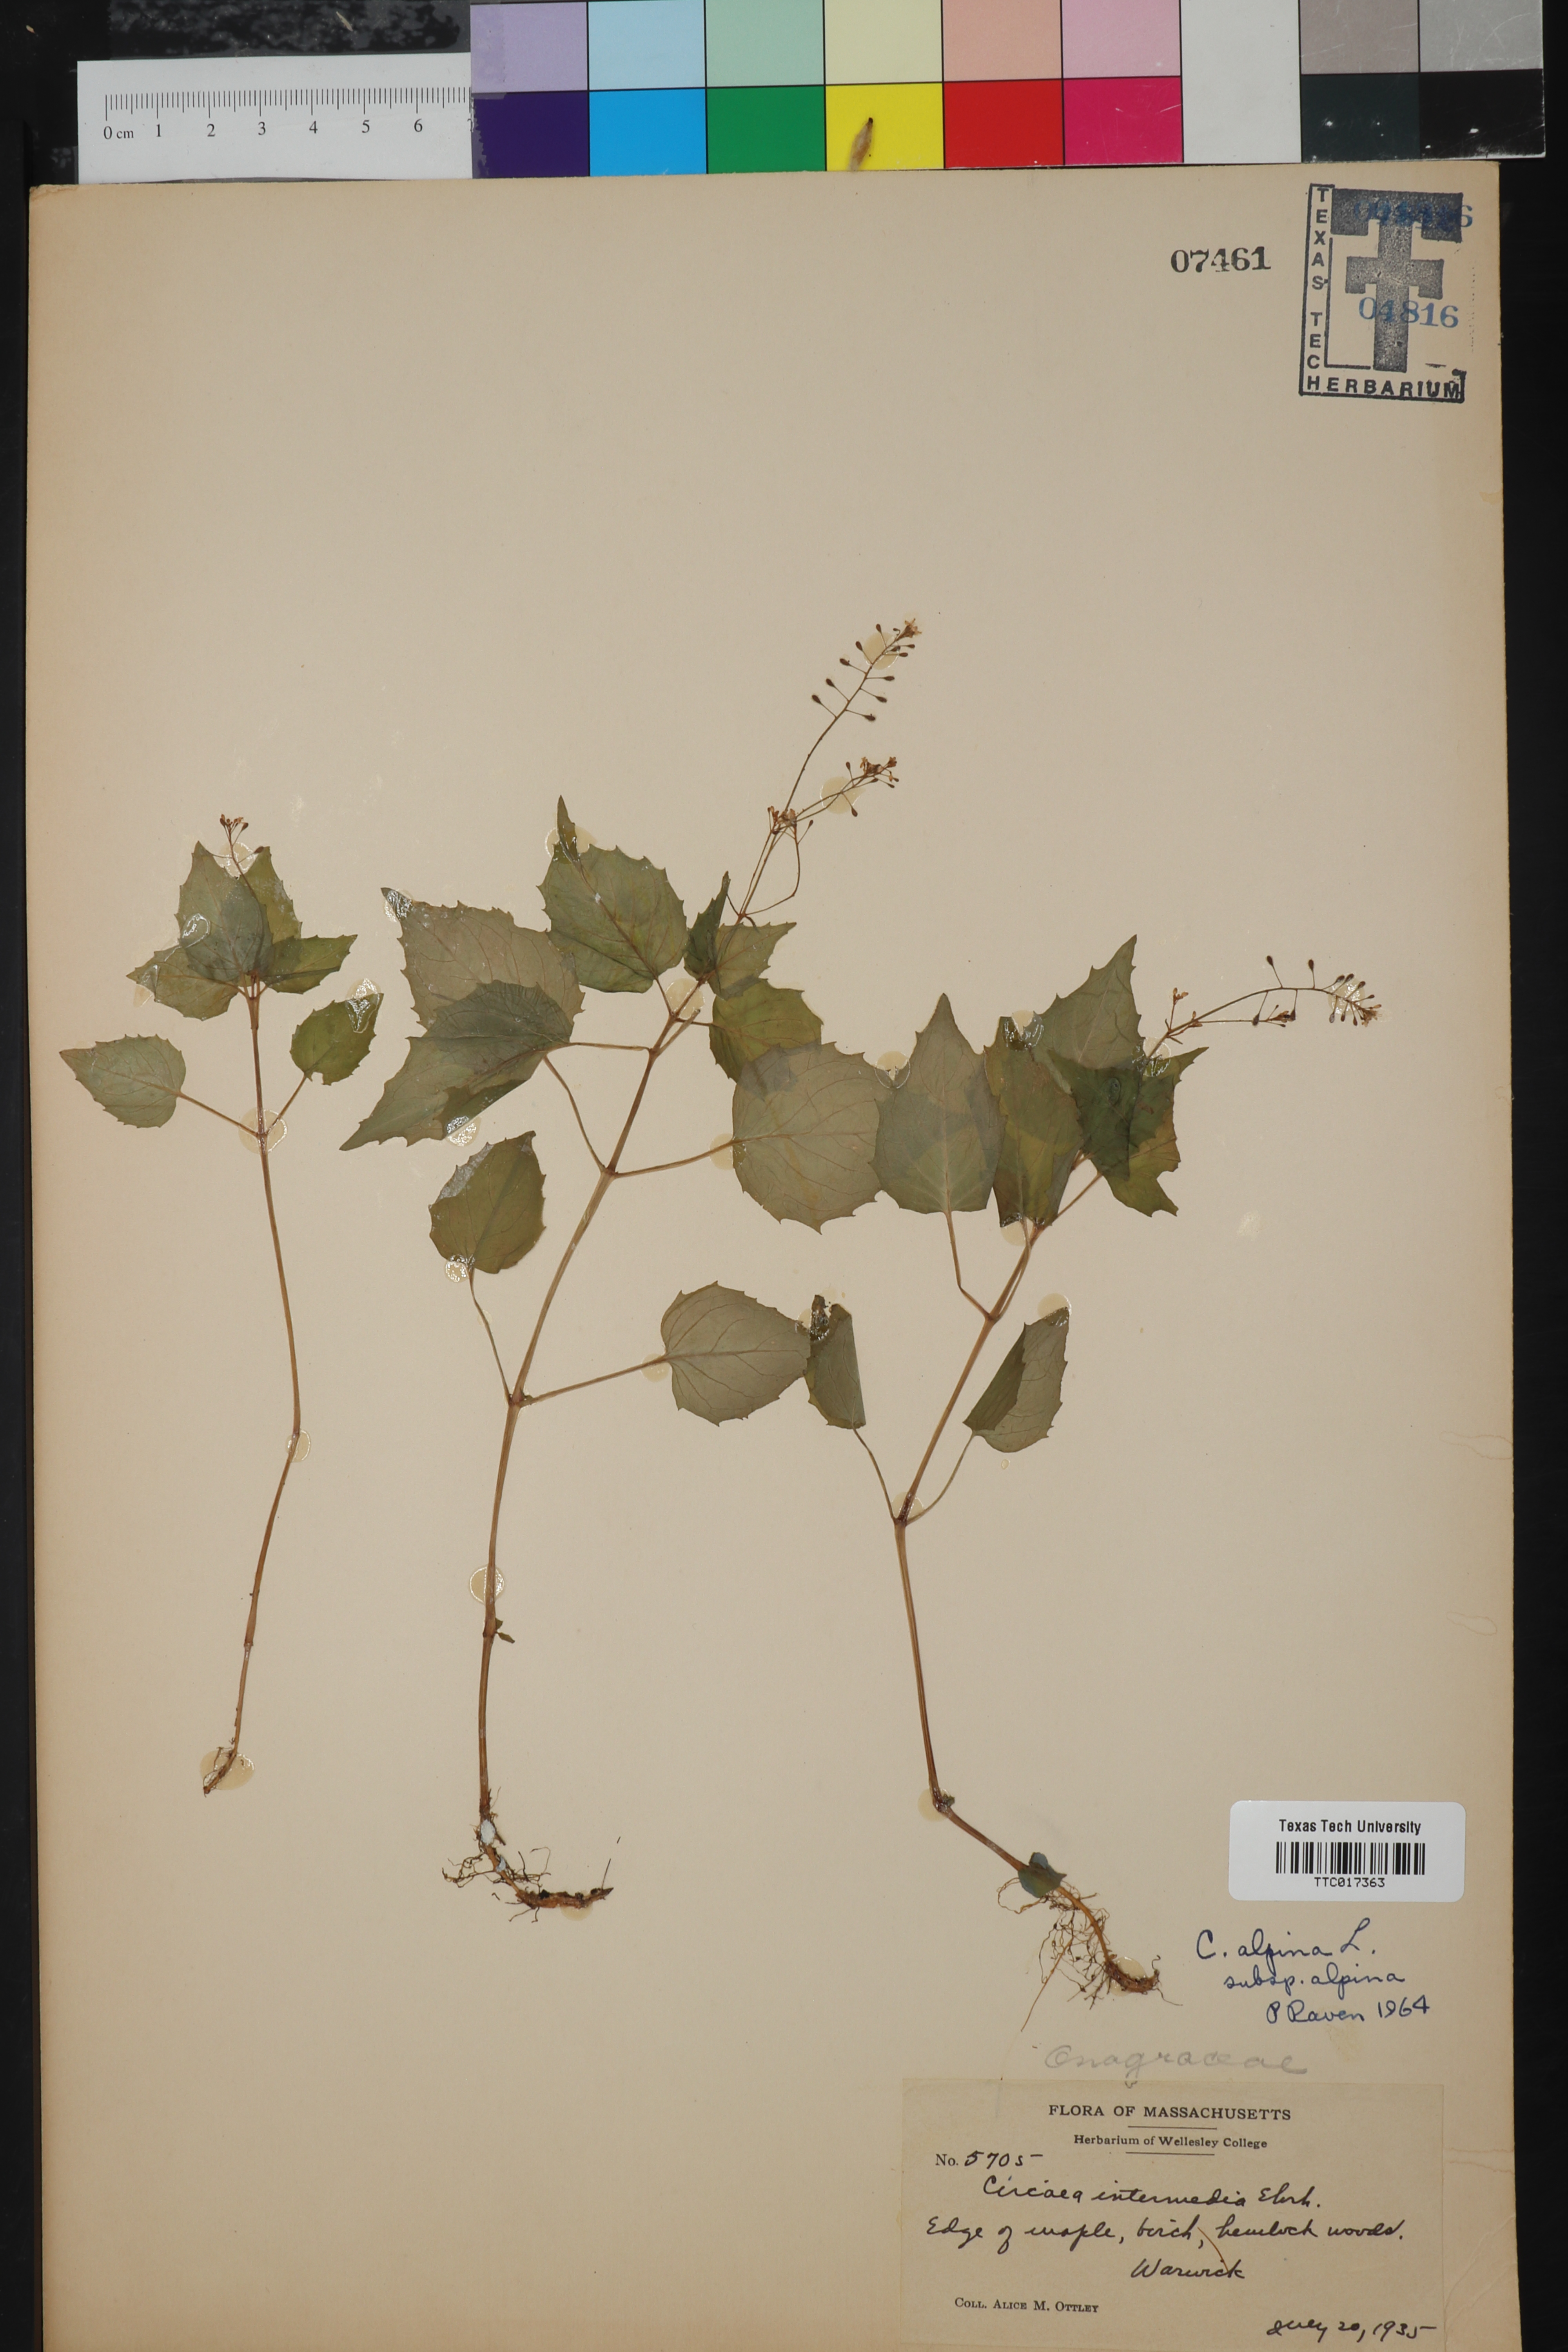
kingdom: Plantae
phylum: Tracheophyta
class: Magnoliopsida
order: Myrtales
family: Onagraceae
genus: Circaea
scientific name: Circaea alpina
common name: Alpine enchanter's-nightshade
